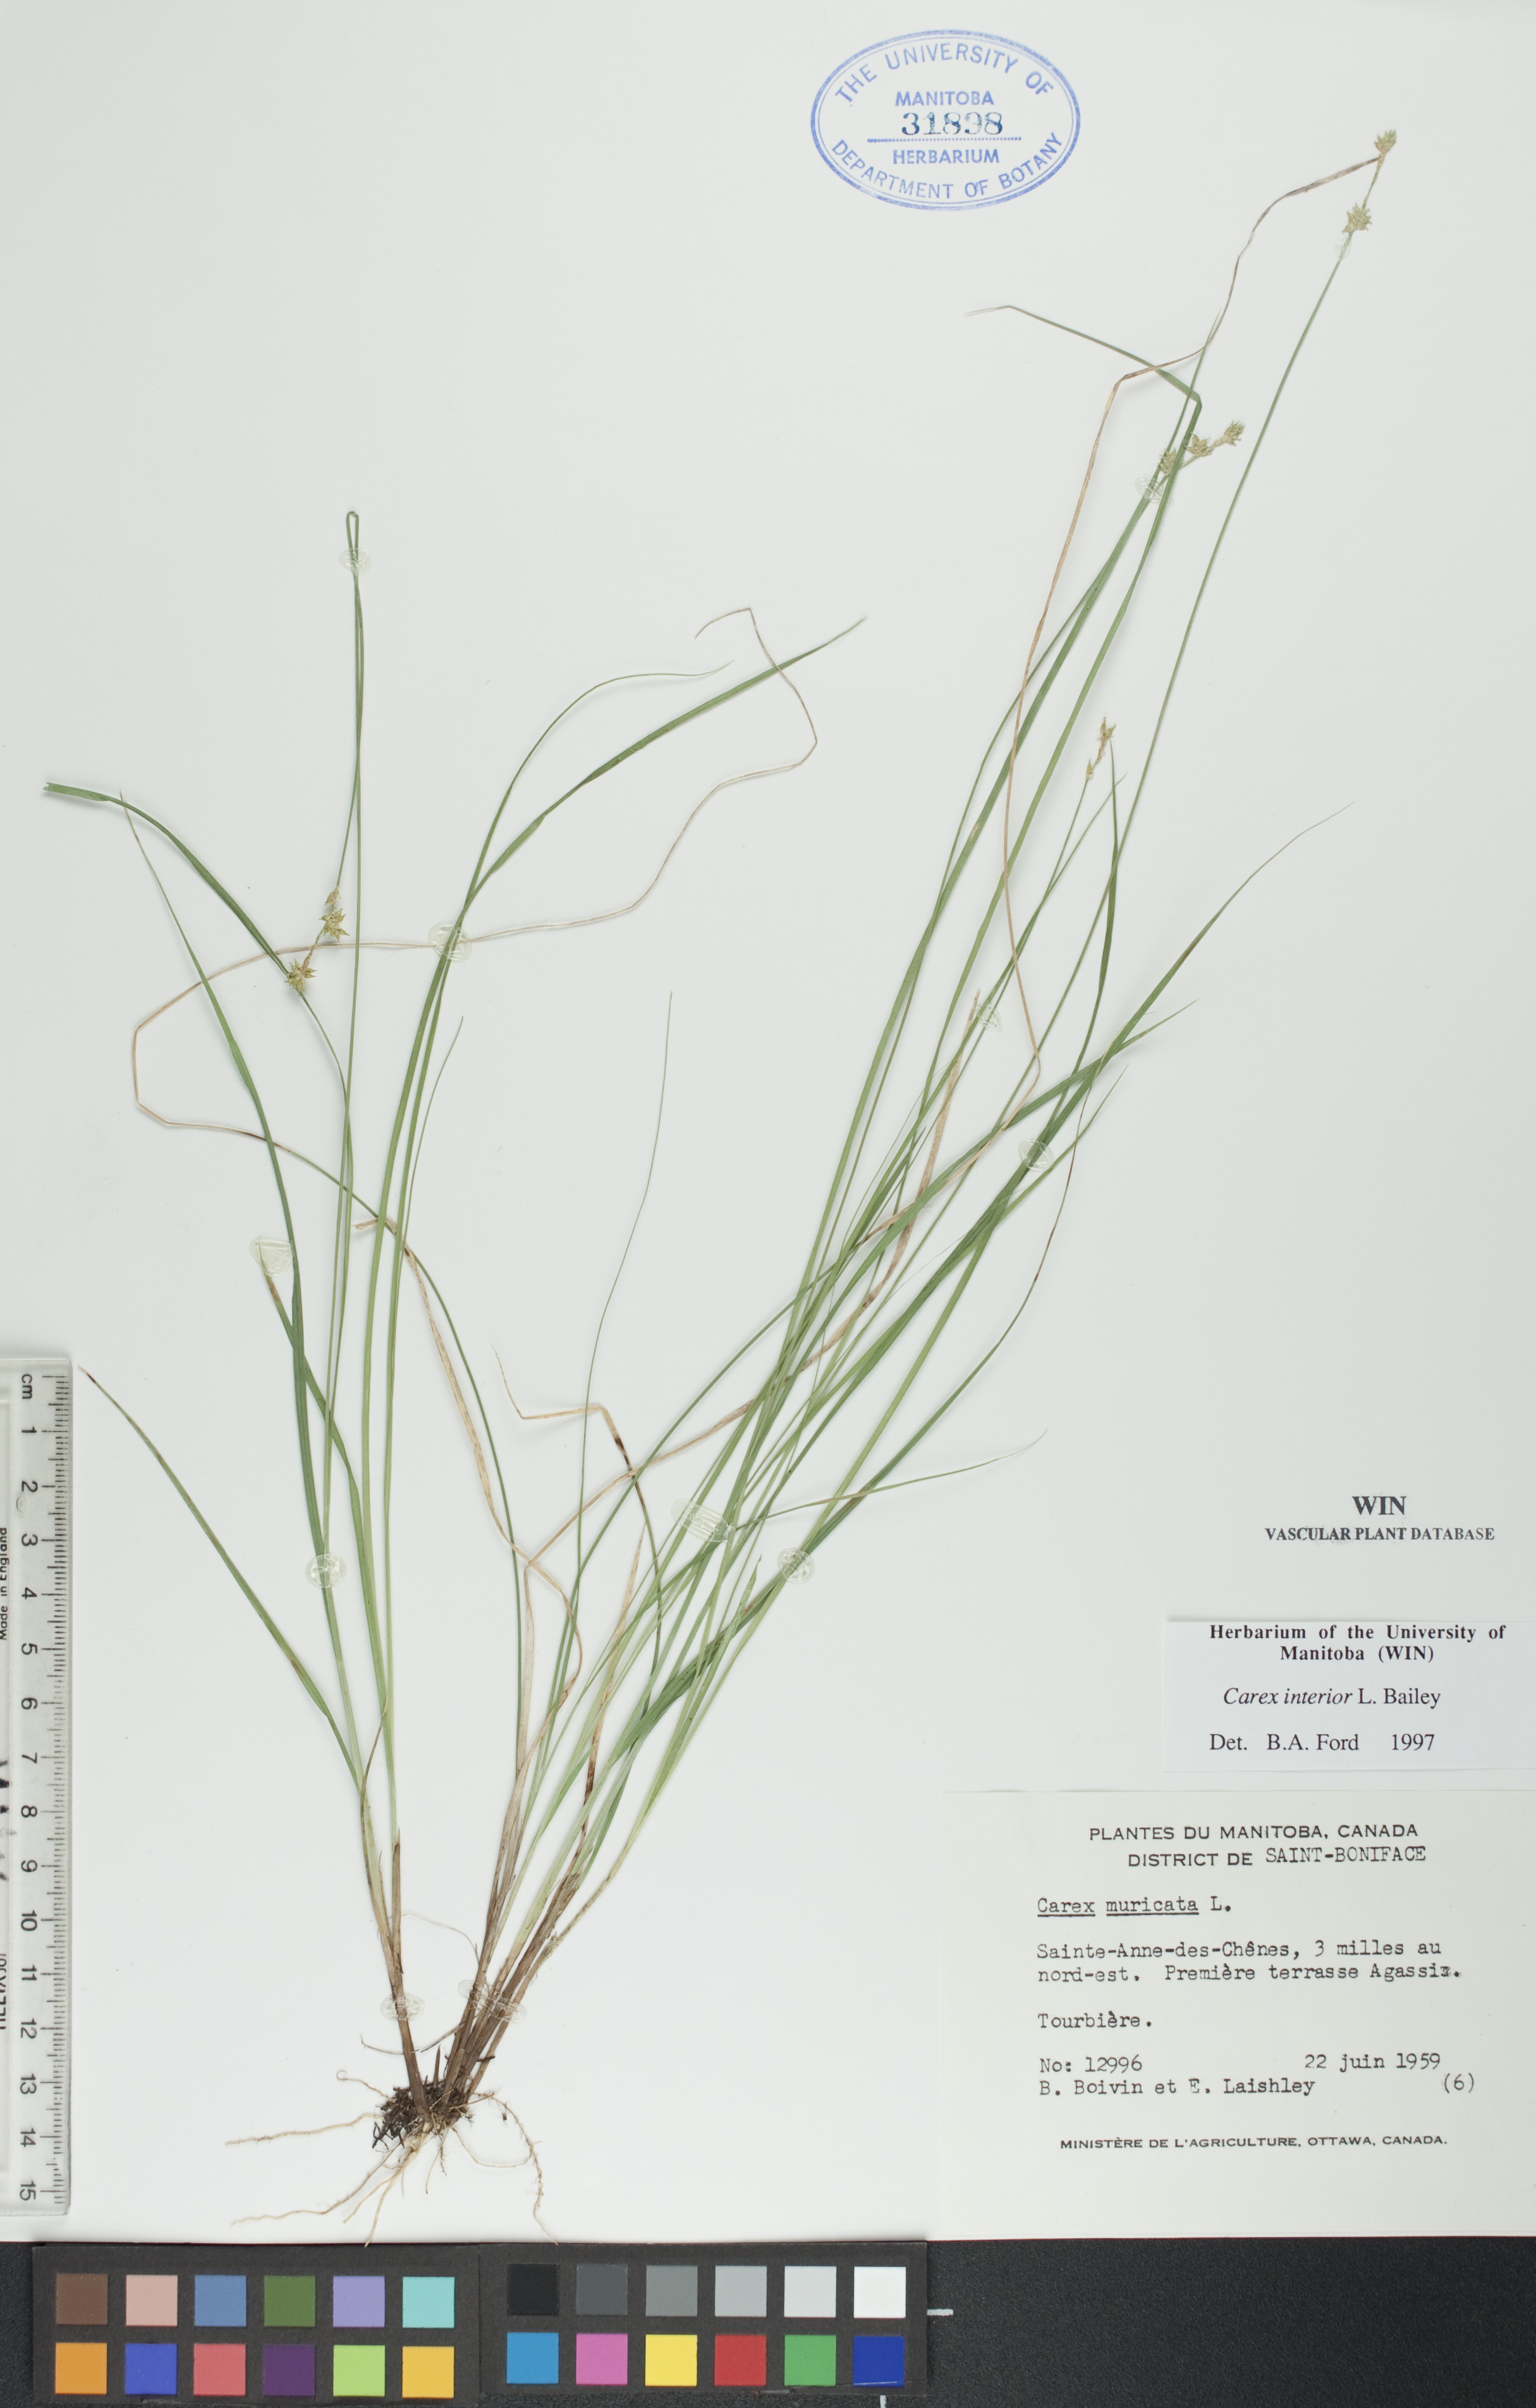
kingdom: Plantae
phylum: Tracheophyta
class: Liliopsida
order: Poales
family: Cyperaceae
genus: Carex
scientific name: Carex interior
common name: Inland sedge
